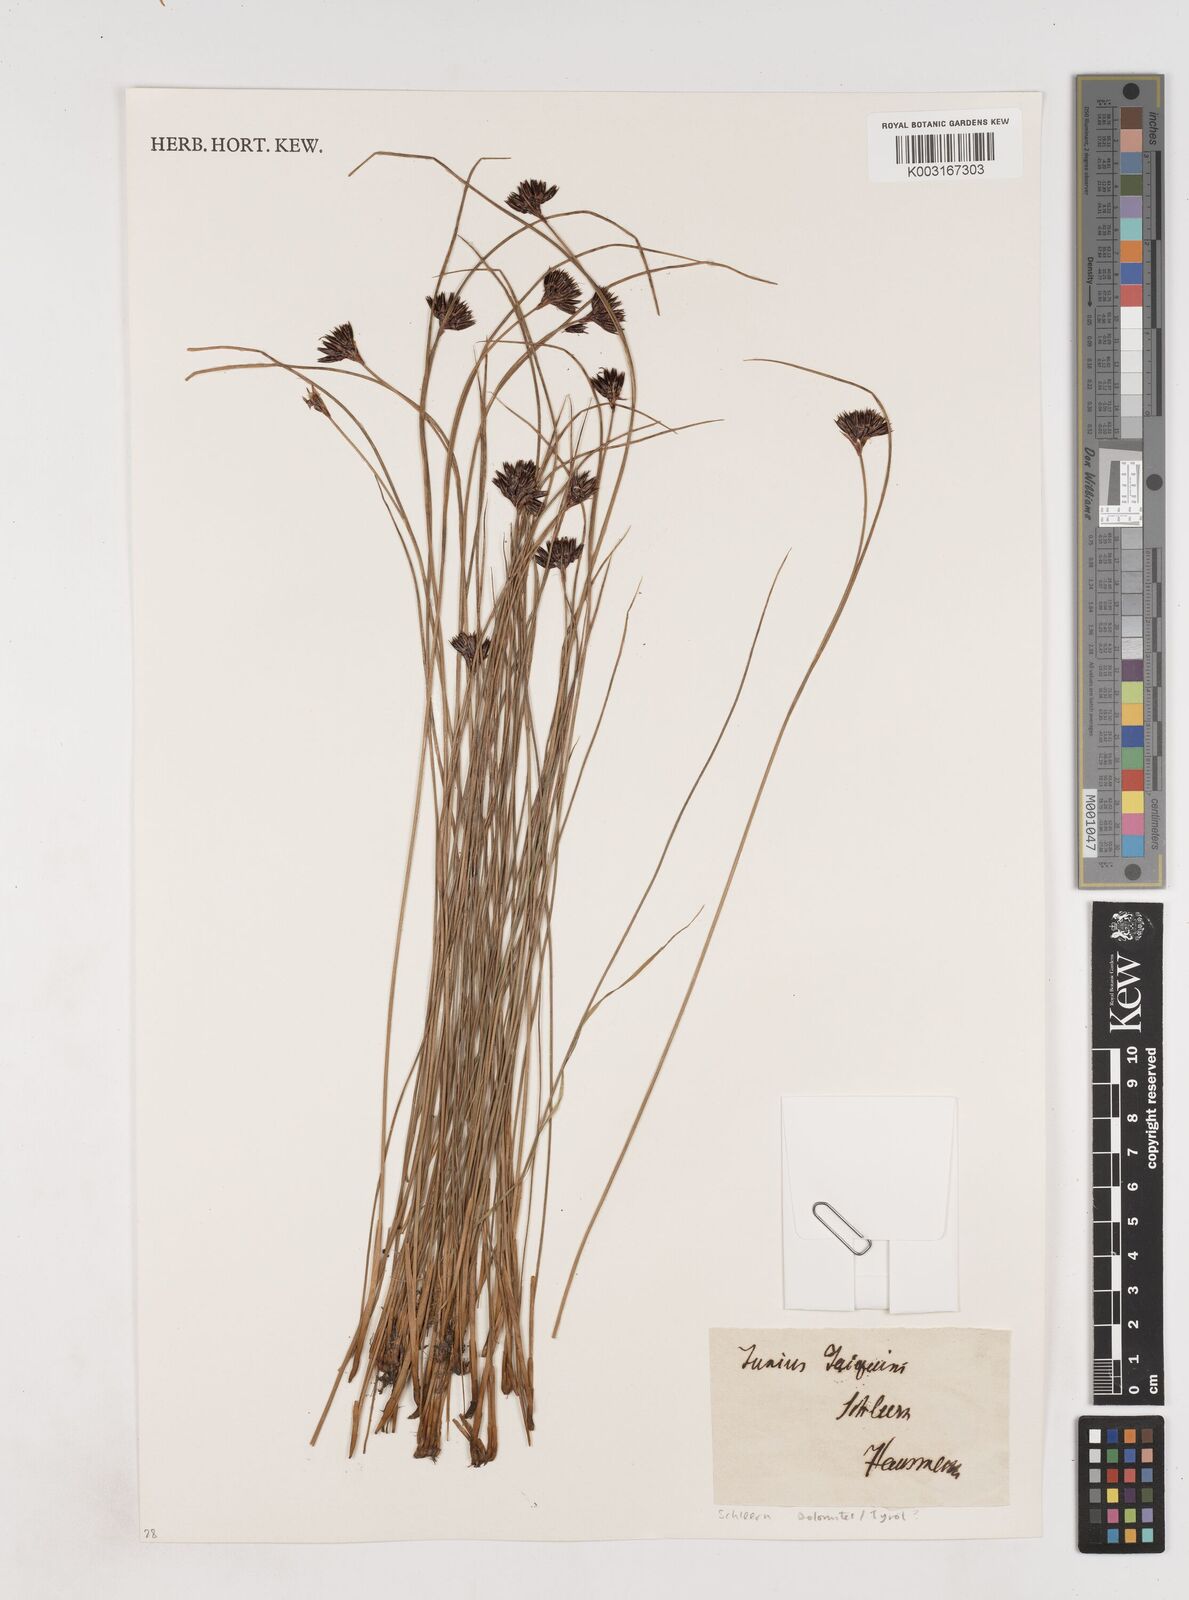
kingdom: Plantae
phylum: Tracheophyta
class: Liliopsida
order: Poales
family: Juncaceae
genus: Juncus
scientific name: Juncus jacquinii
